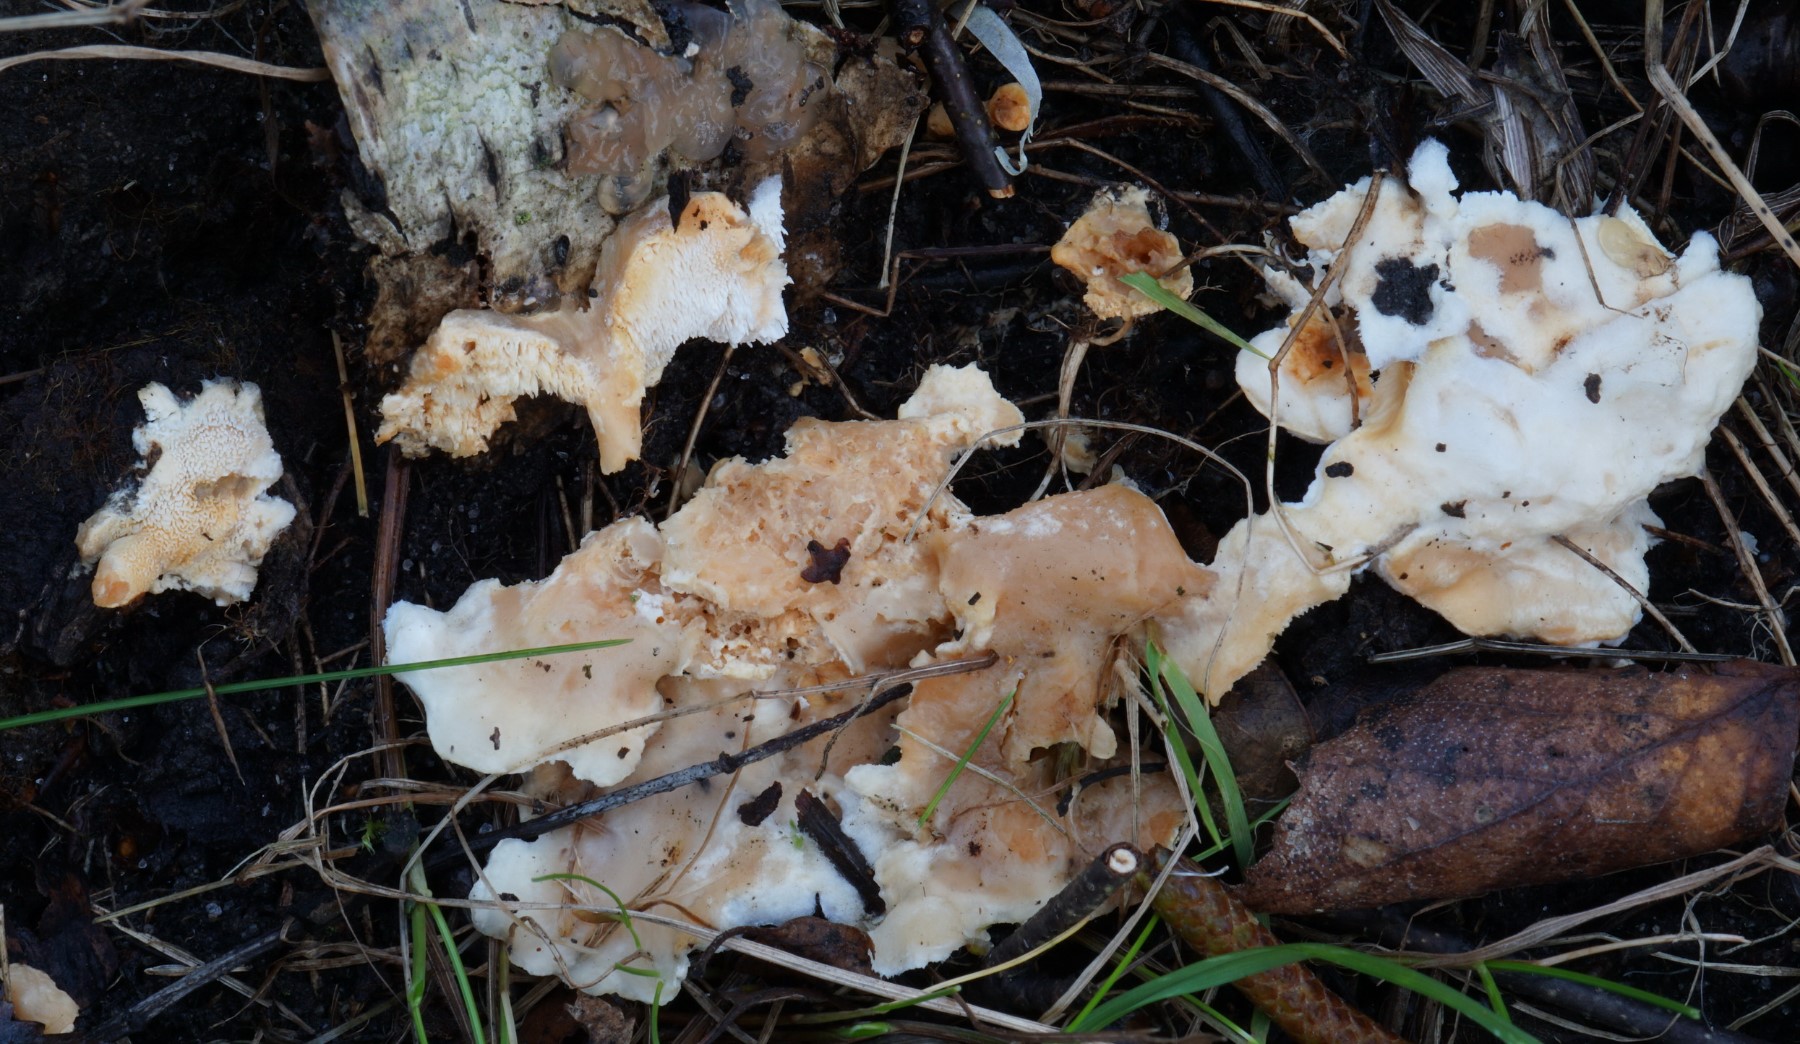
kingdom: Fungi
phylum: Basidiomycota
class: Agaricomycetes
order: Cantharellales
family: Hydnaceae
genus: Sistotrema
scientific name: Sistotrema confluens
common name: stilket kroneskorpe
